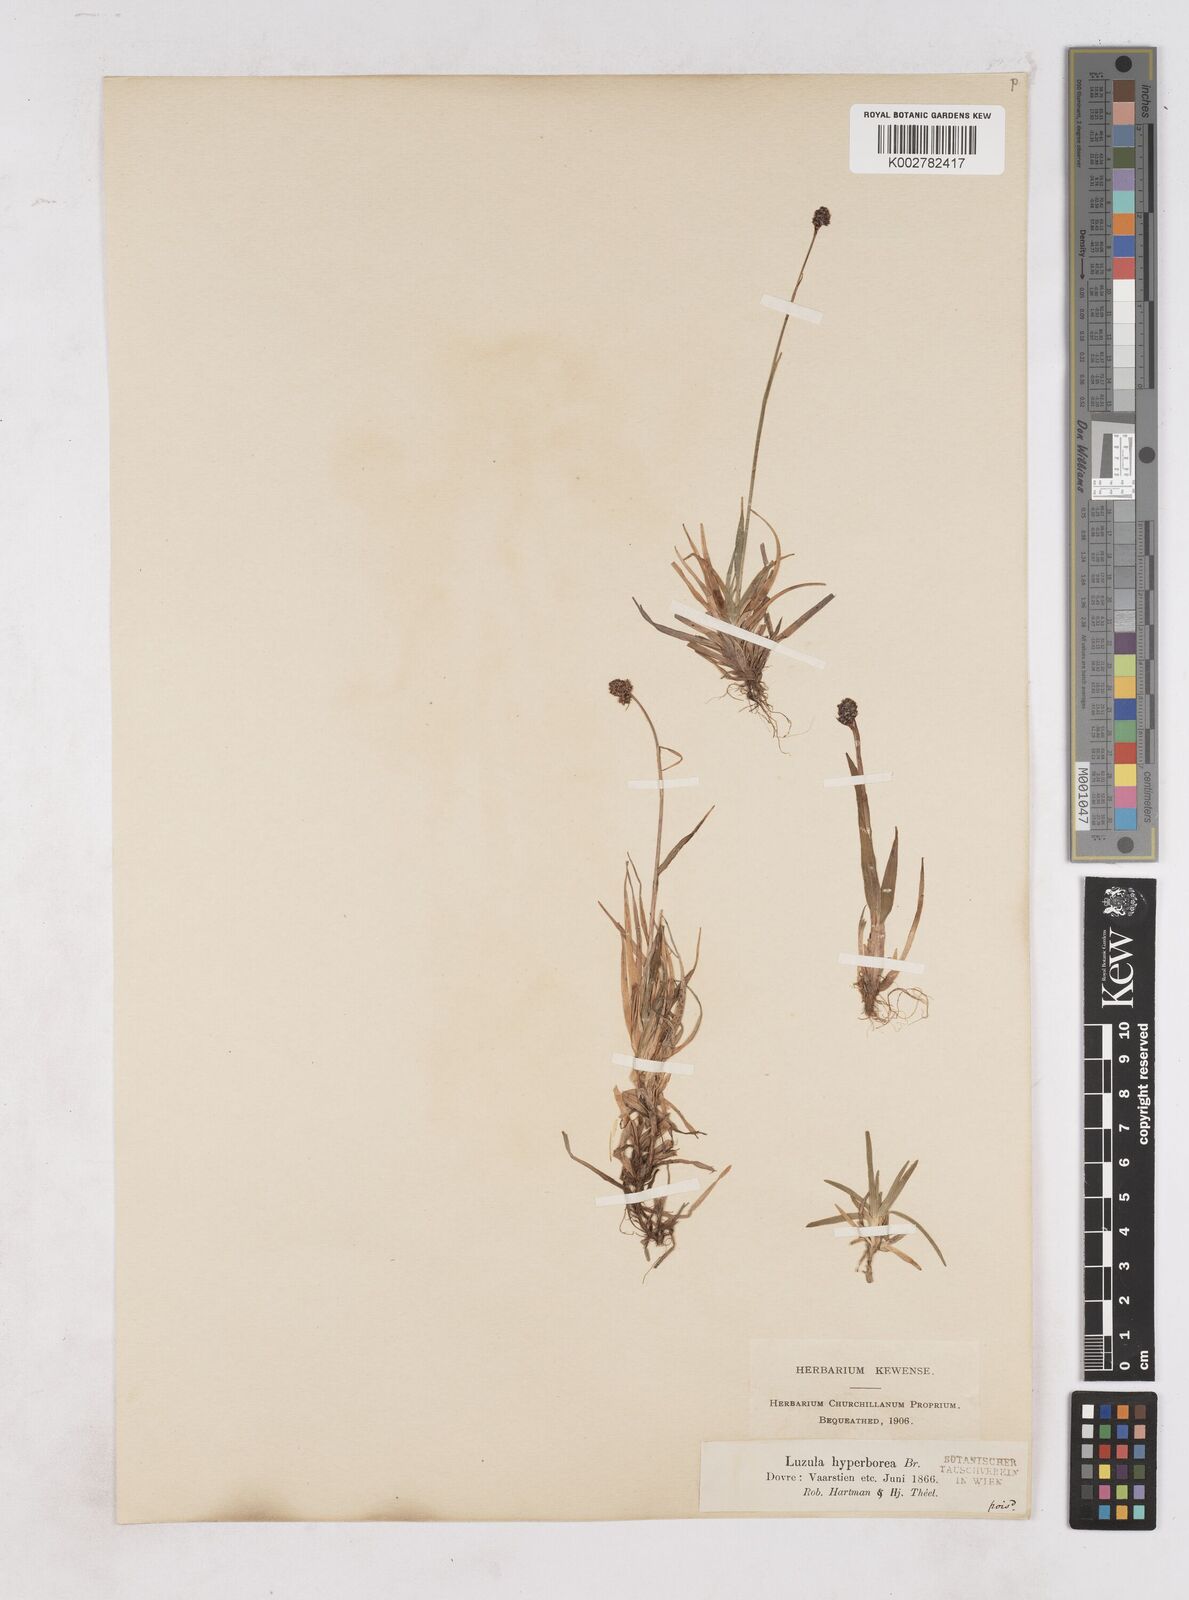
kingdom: Plantae
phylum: Tracheophyta
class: Liliopsida
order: Poales
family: Juncaceae
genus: Luzula
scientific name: Luzula nivalis
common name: Arctic woodrush
